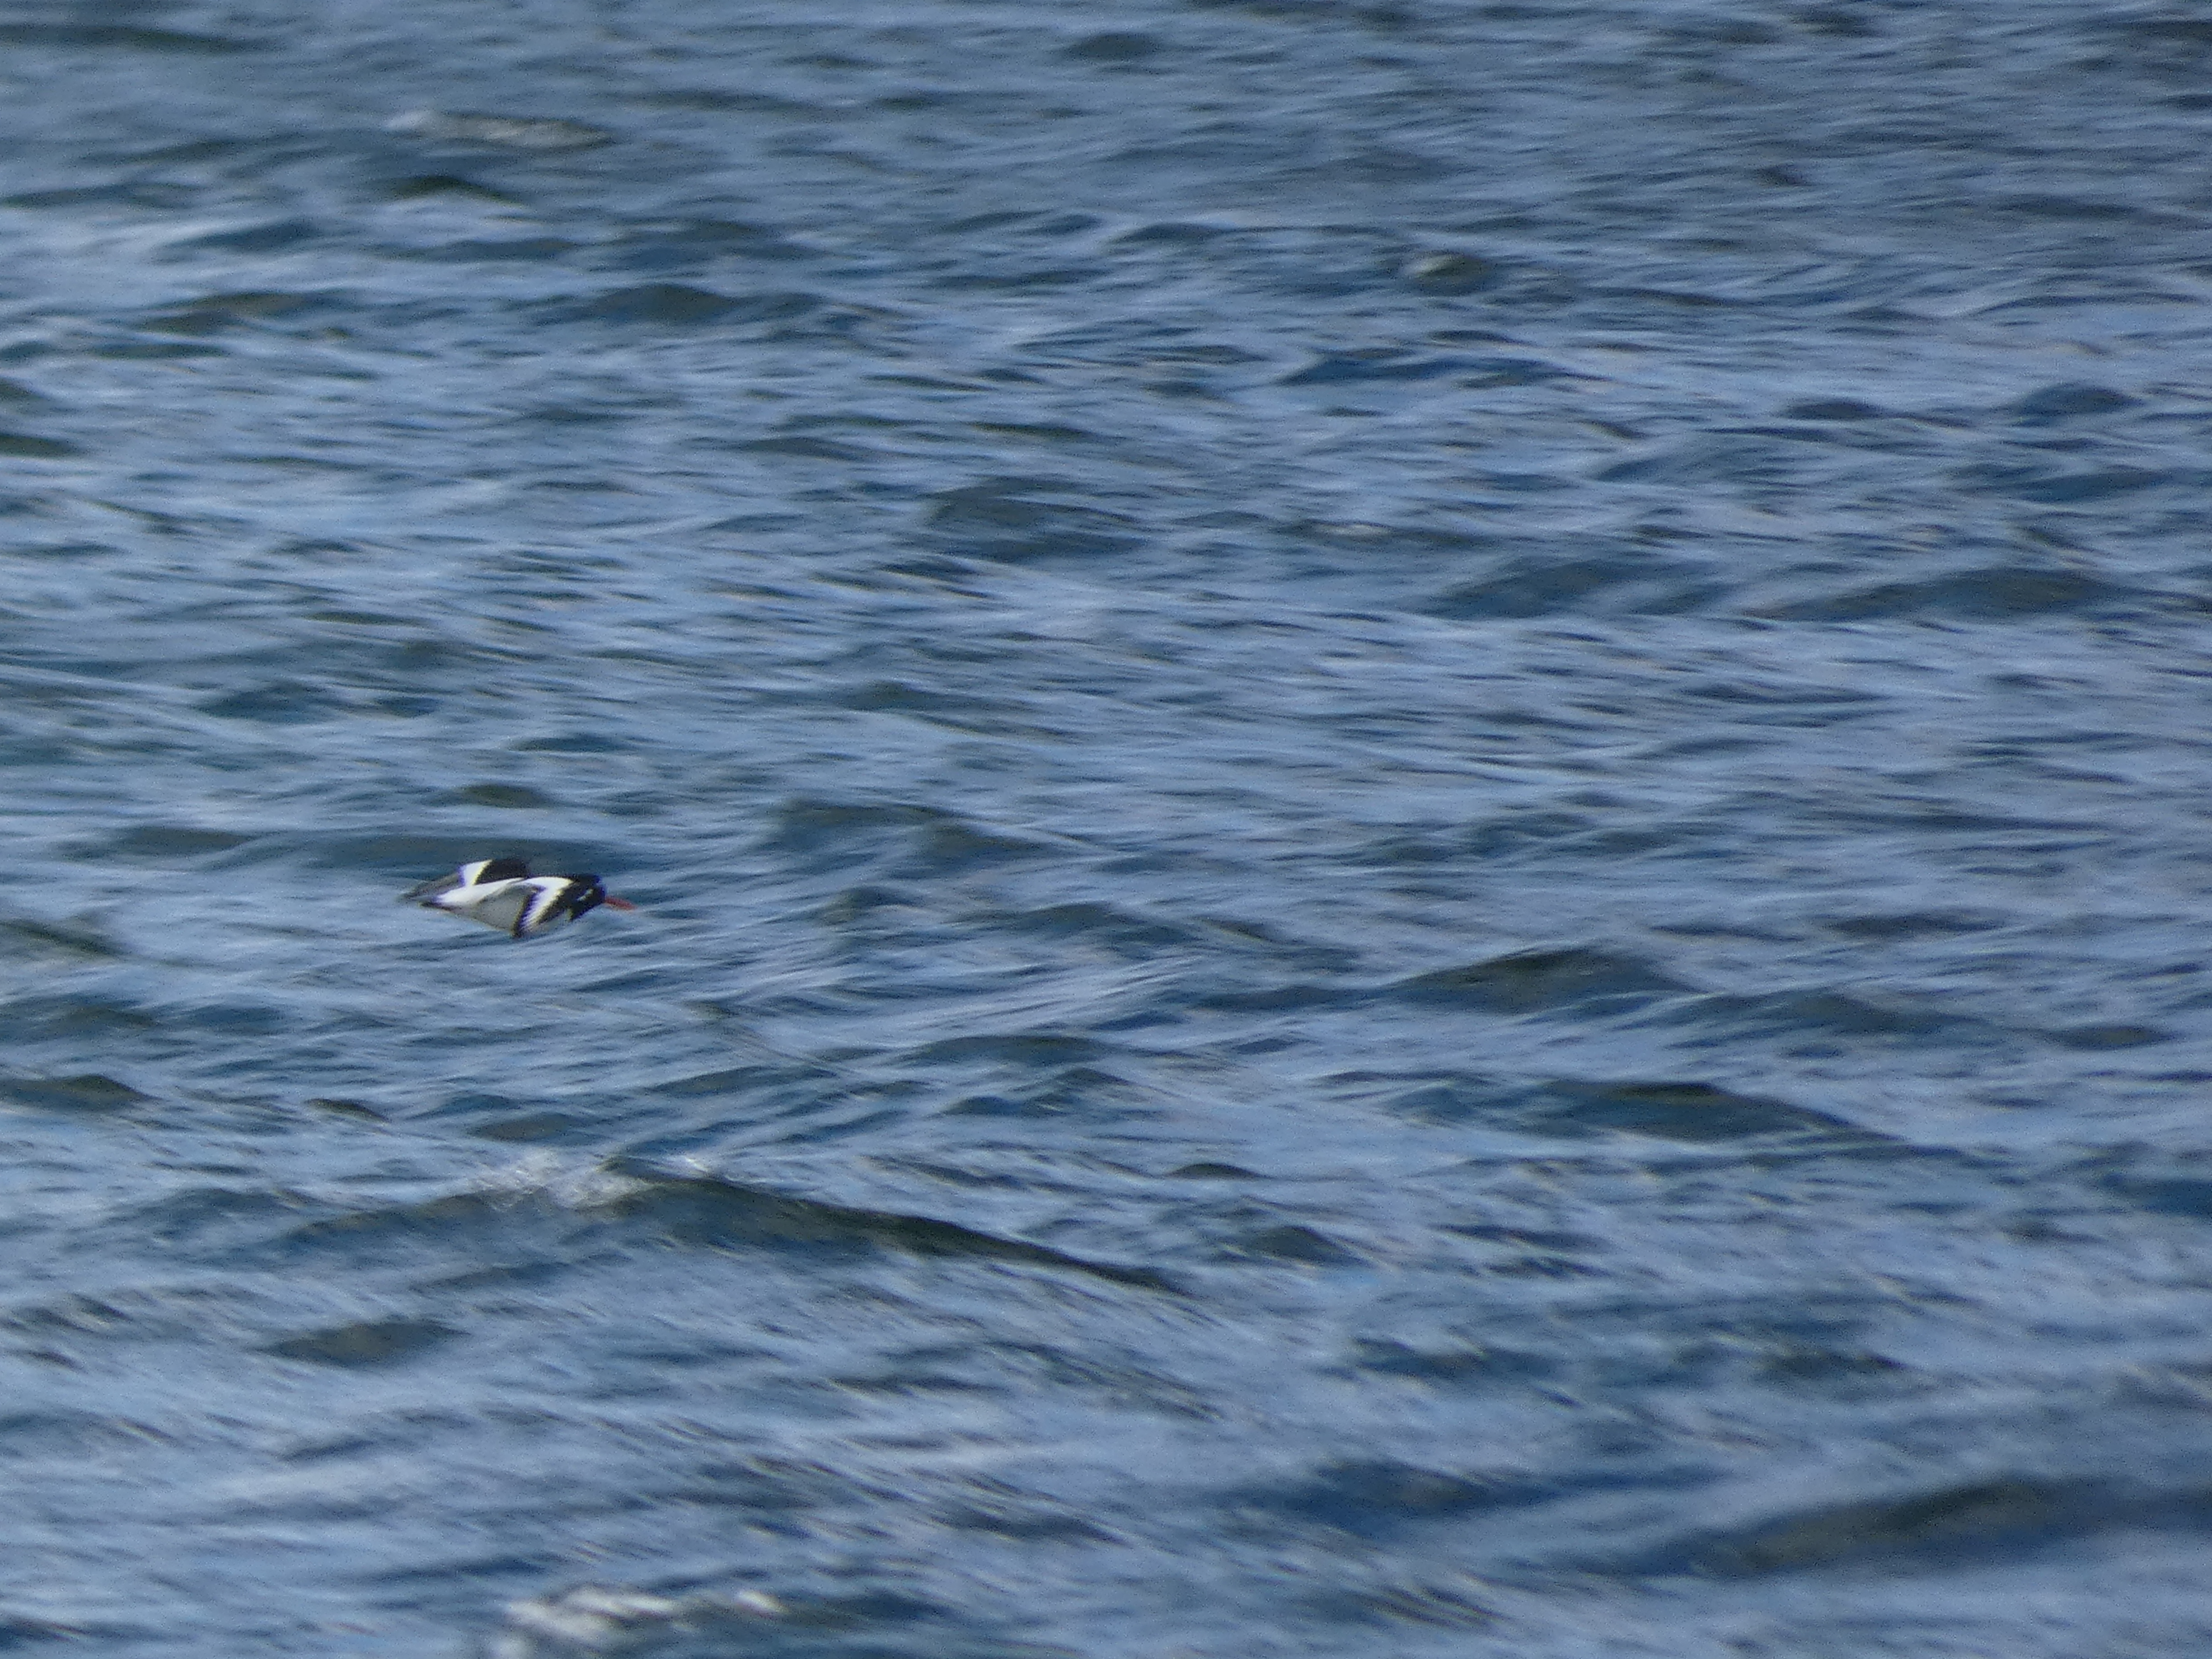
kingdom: Animalia
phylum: Chordata
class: Aves
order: Charadriiformes
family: Haematopodidae
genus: Haematopus
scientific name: Haematopus ostralegus
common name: Strandskade
